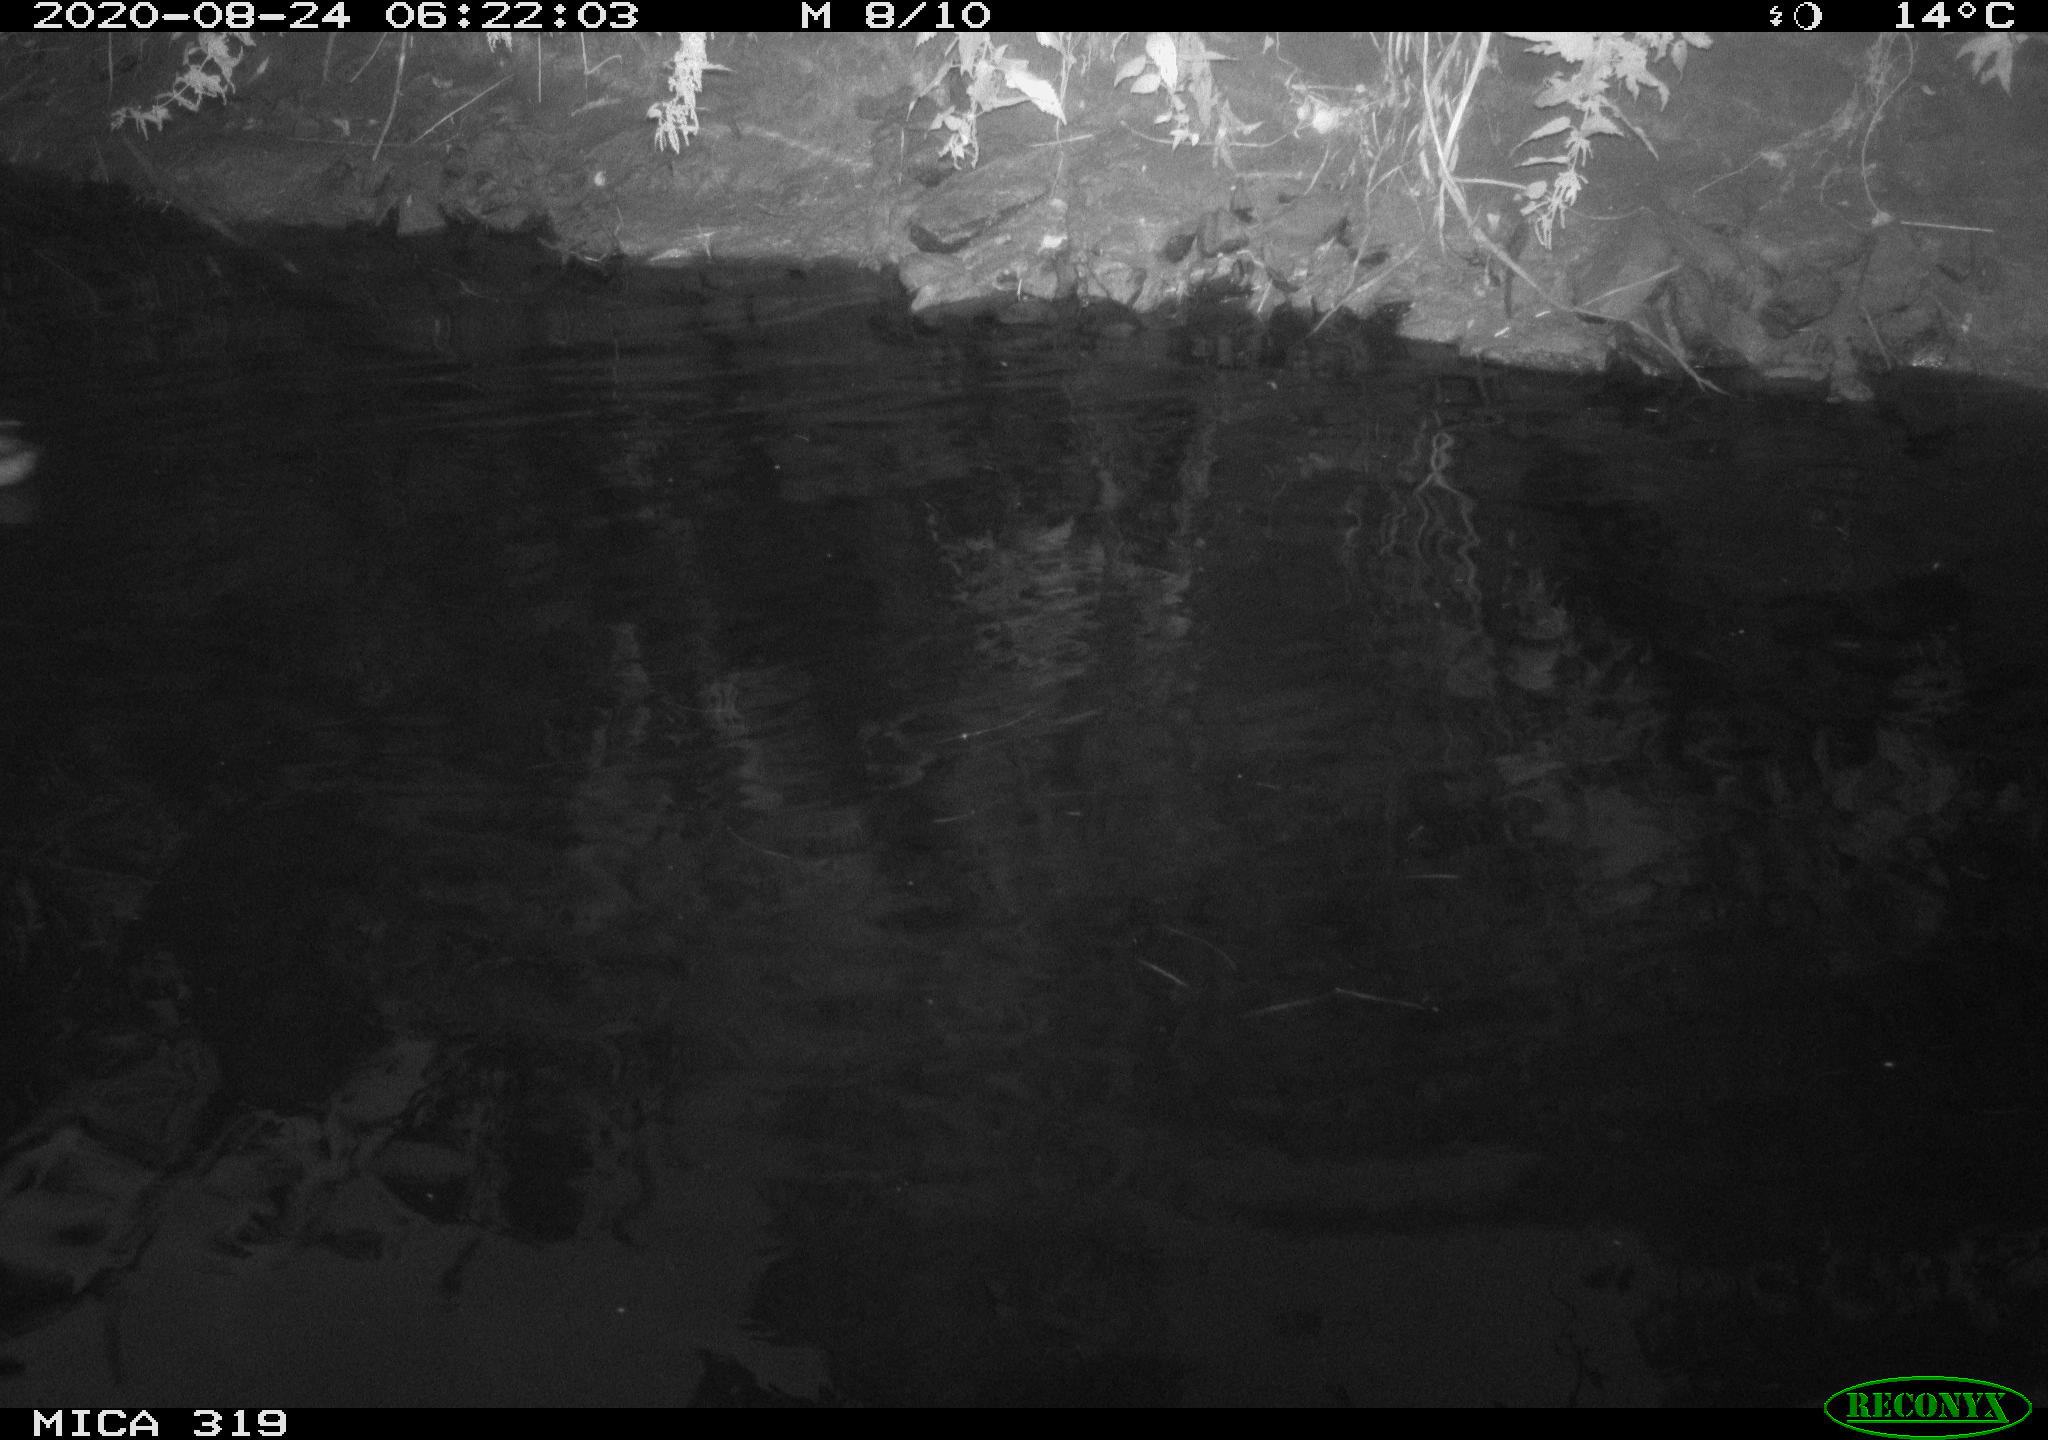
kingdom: Animalia
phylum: Chordata
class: Aves
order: Anseriformes
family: Anatidae
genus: Anas
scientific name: Anas platyrhynchos
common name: Mallard
